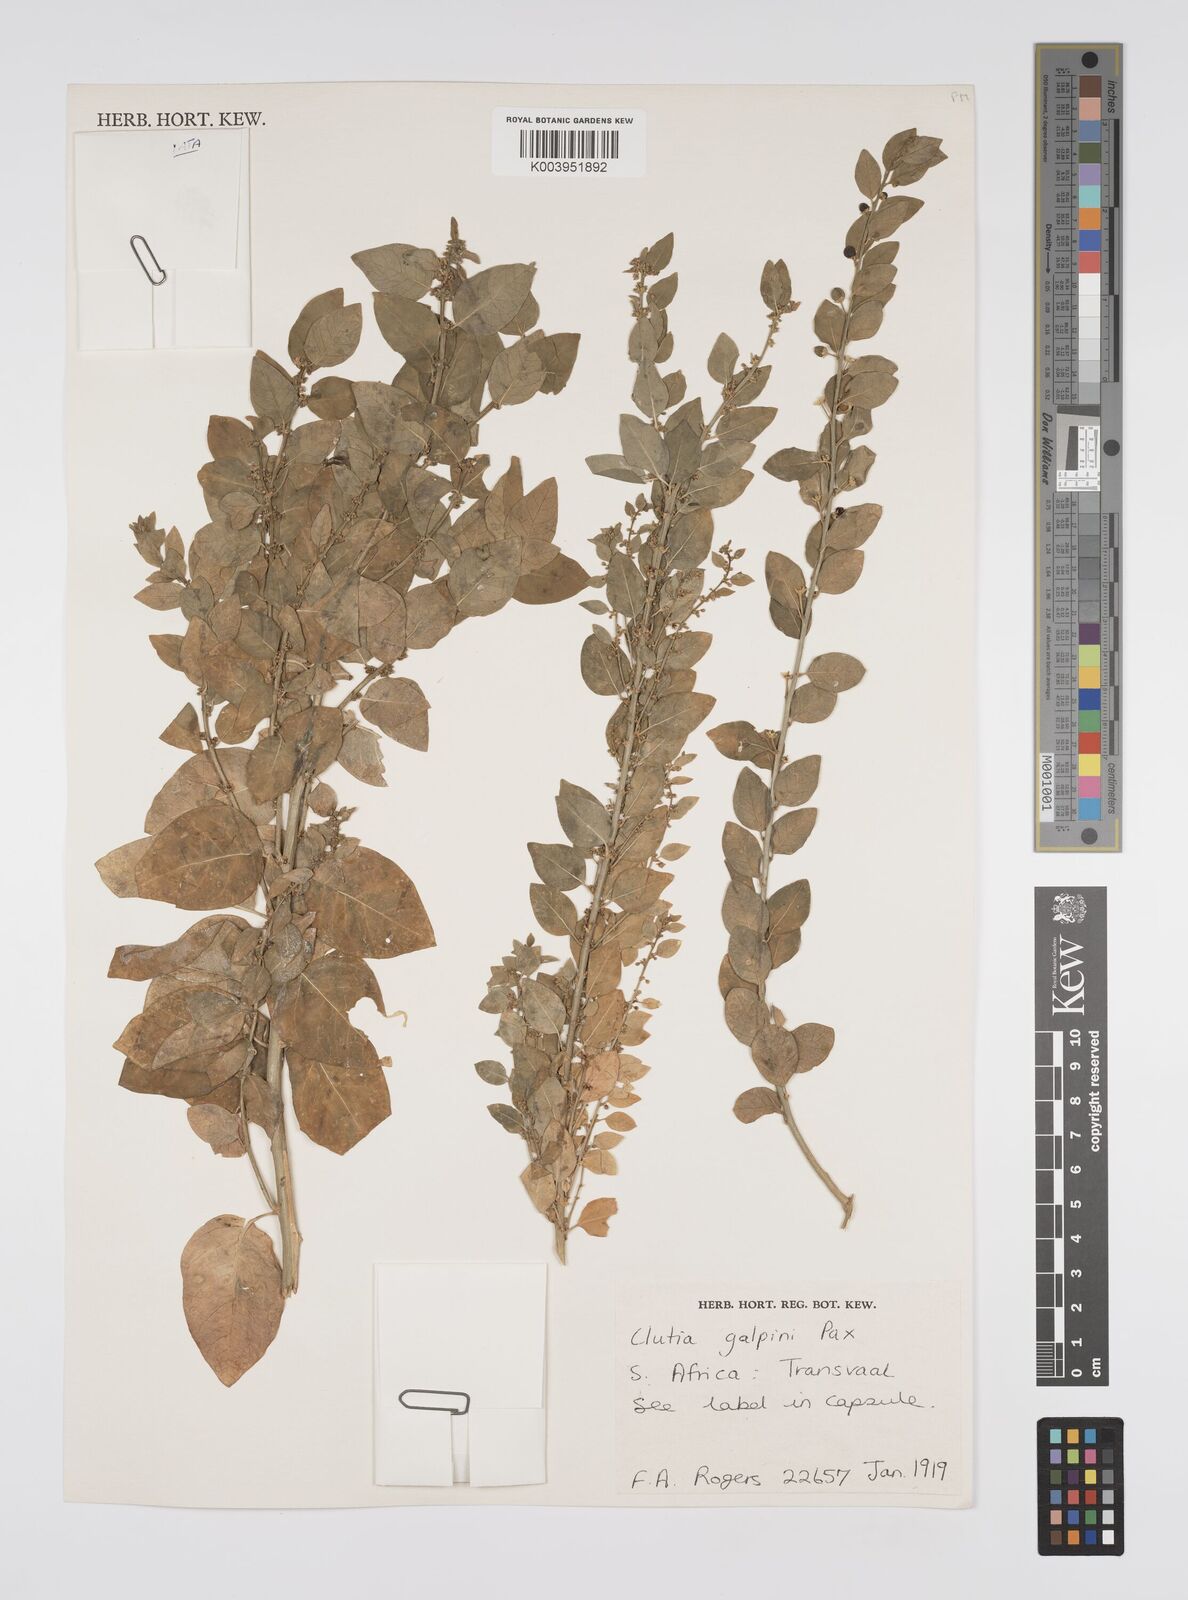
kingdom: Plantae
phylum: Tracheophyta
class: Magnoliopsida
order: Malpighiales
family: Peraceae
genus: Clutia
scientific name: Clutia galpinii
